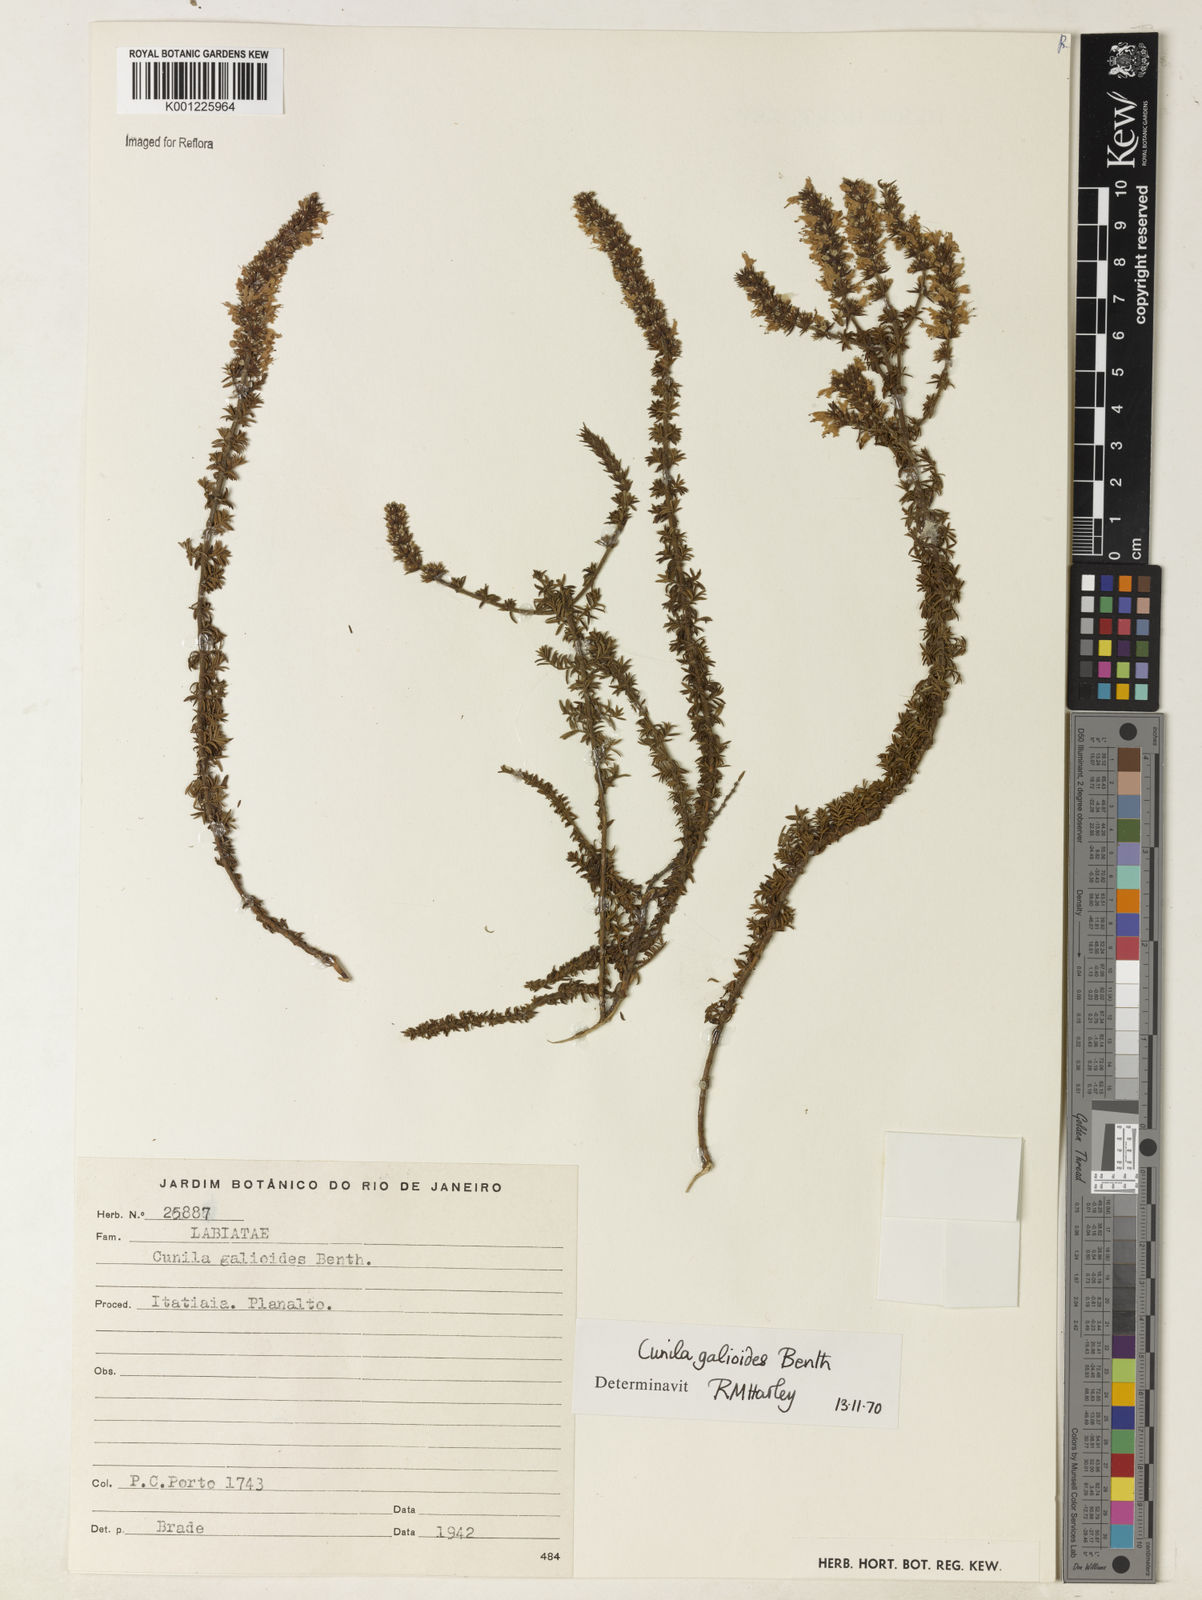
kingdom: Plantae
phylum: Tracheophyta
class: Magnoliopsida
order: Lamiales
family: Lamiaceae
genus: Cunila
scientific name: Cunila galioides
